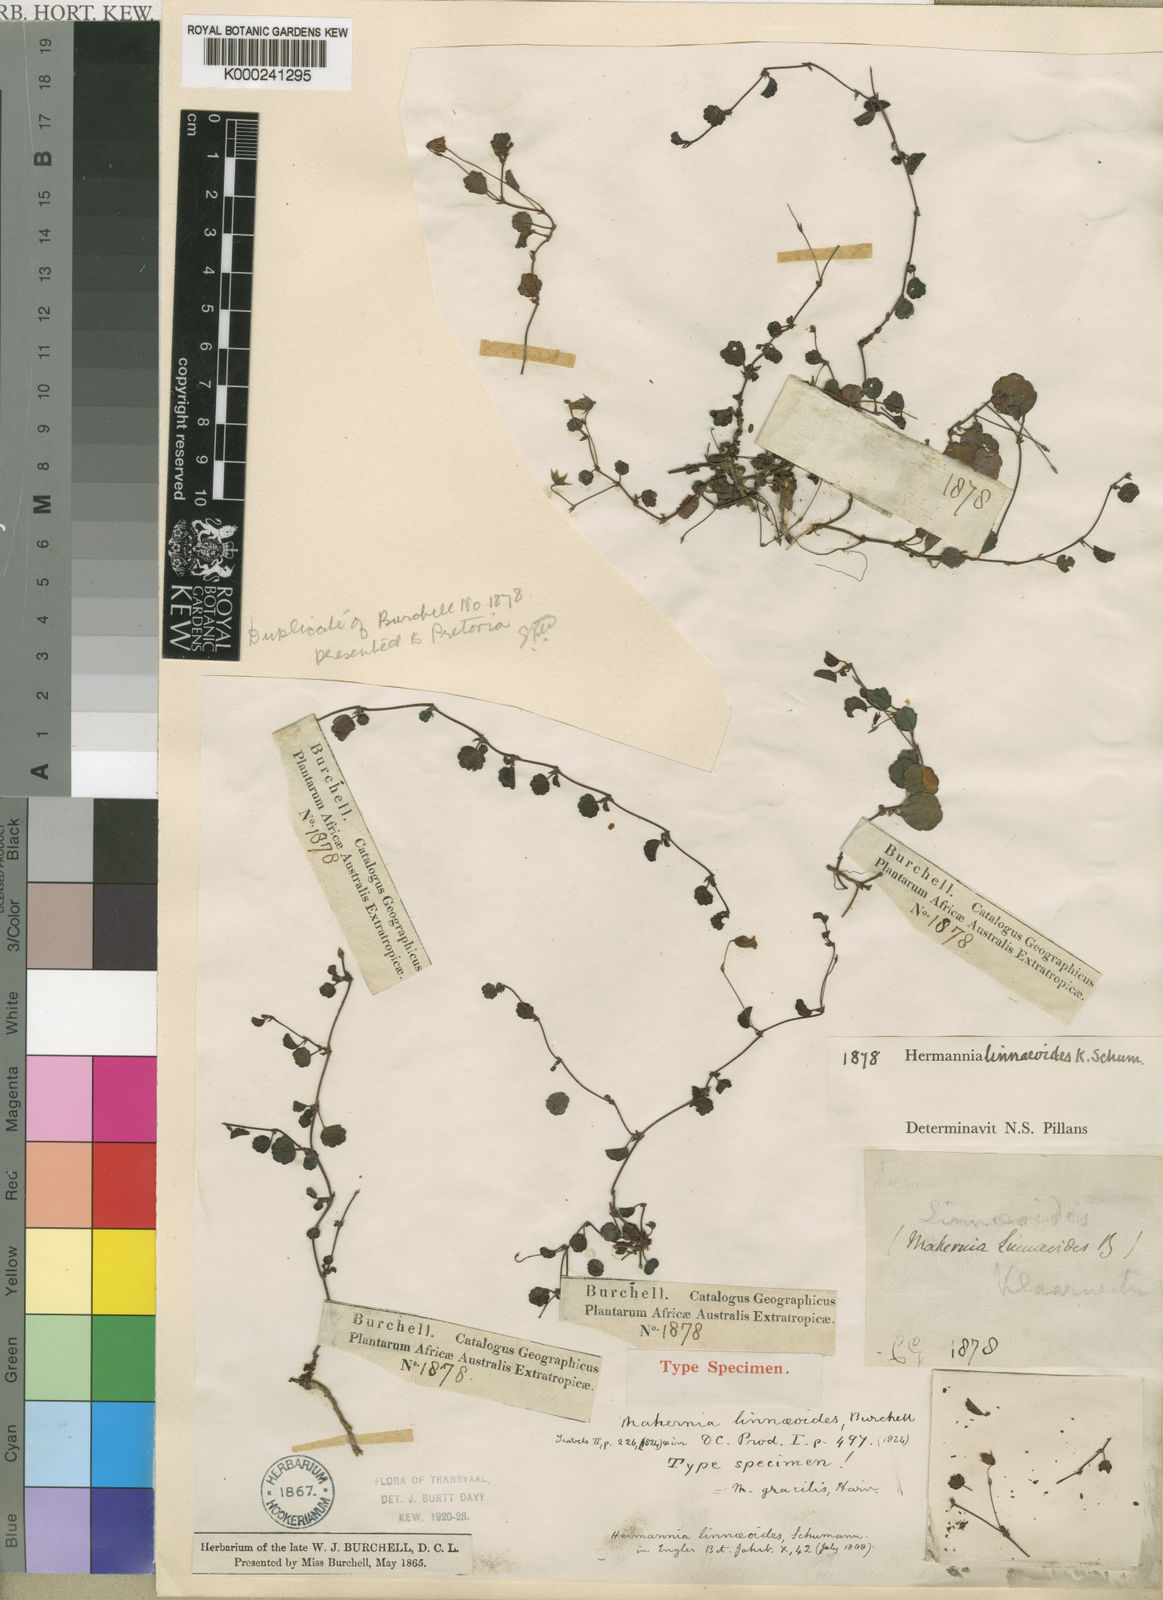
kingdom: Plantae
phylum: Tracheophyta
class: Magnoliopsida
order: Malvales
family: Malvaceae
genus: Hermannia
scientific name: Hermannia linnaeoides
